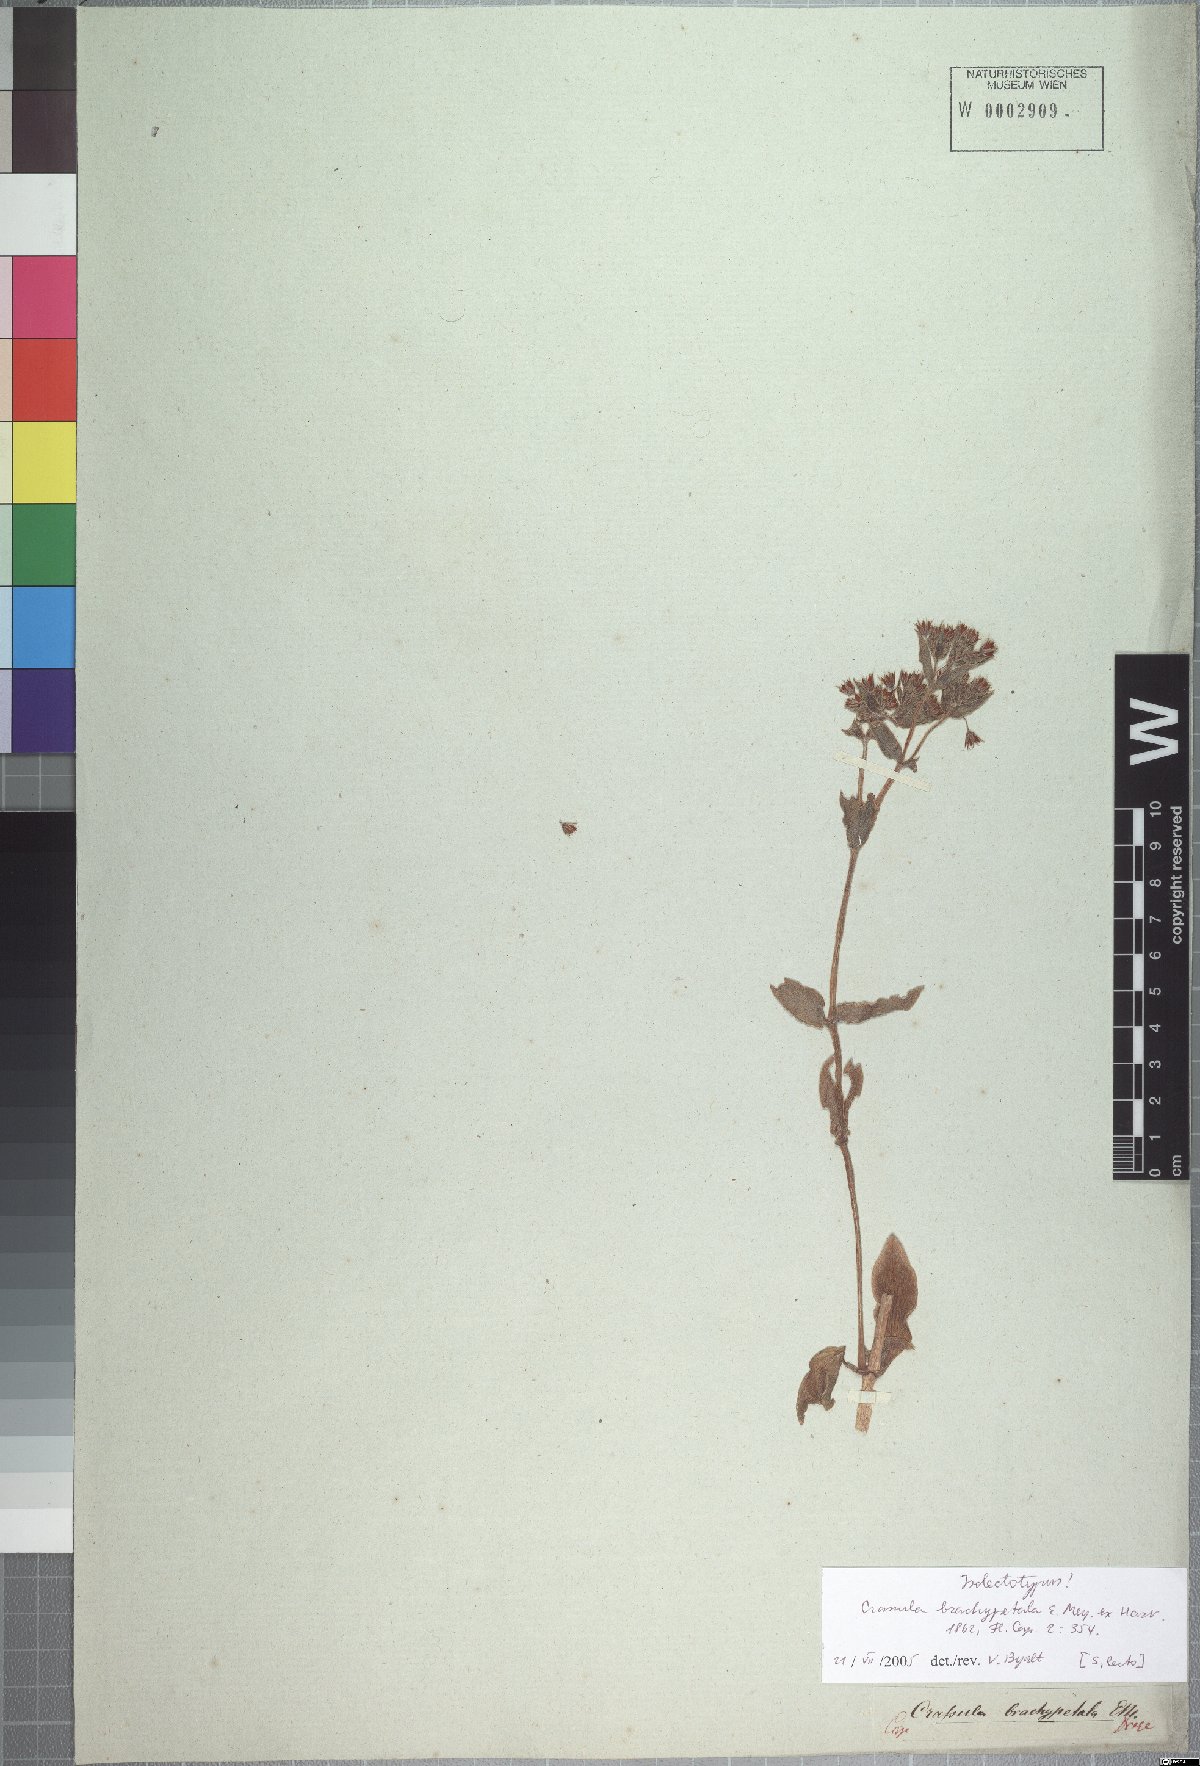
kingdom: Plantae
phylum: Tracheophyta
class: Magnoliopsida
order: Saxifragales
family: Crassulaceae
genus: Crassula
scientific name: Crassula pellucida
